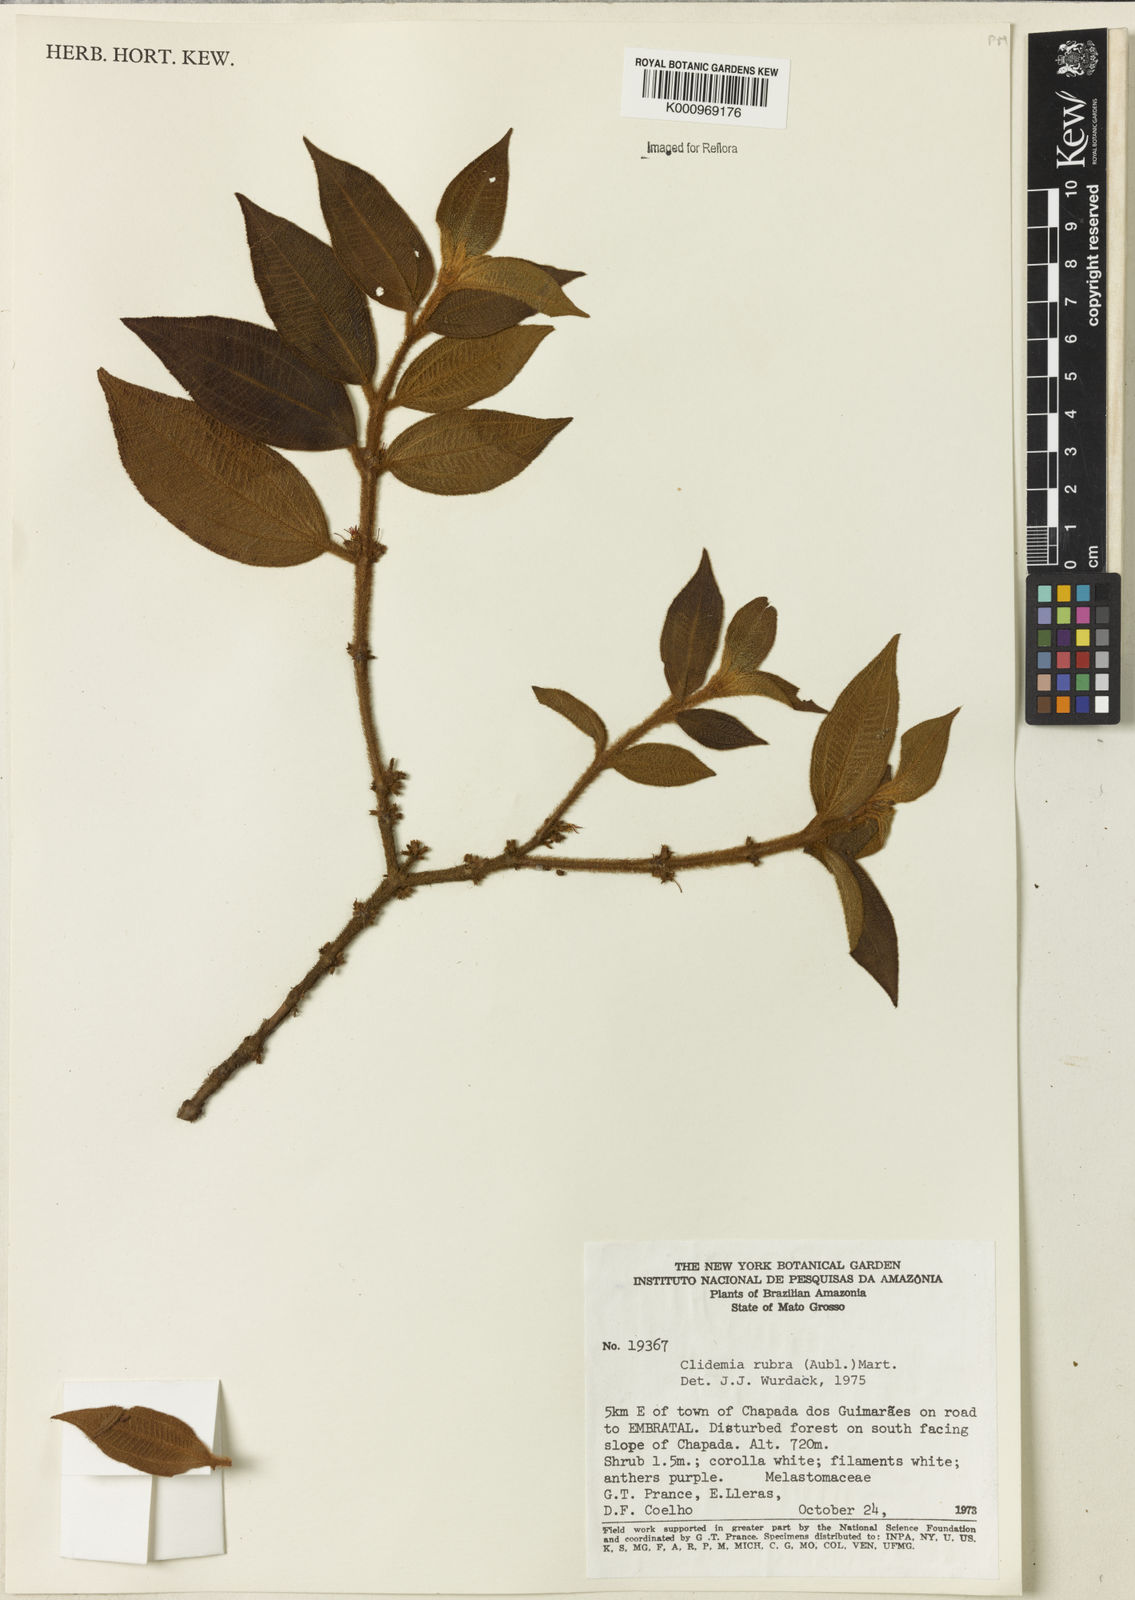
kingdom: Plantae
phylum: Tracheophyta
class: Magnoliopsida
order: Myrtales
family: Melastomataceae
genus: Miconia
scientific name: Miconia rubra
